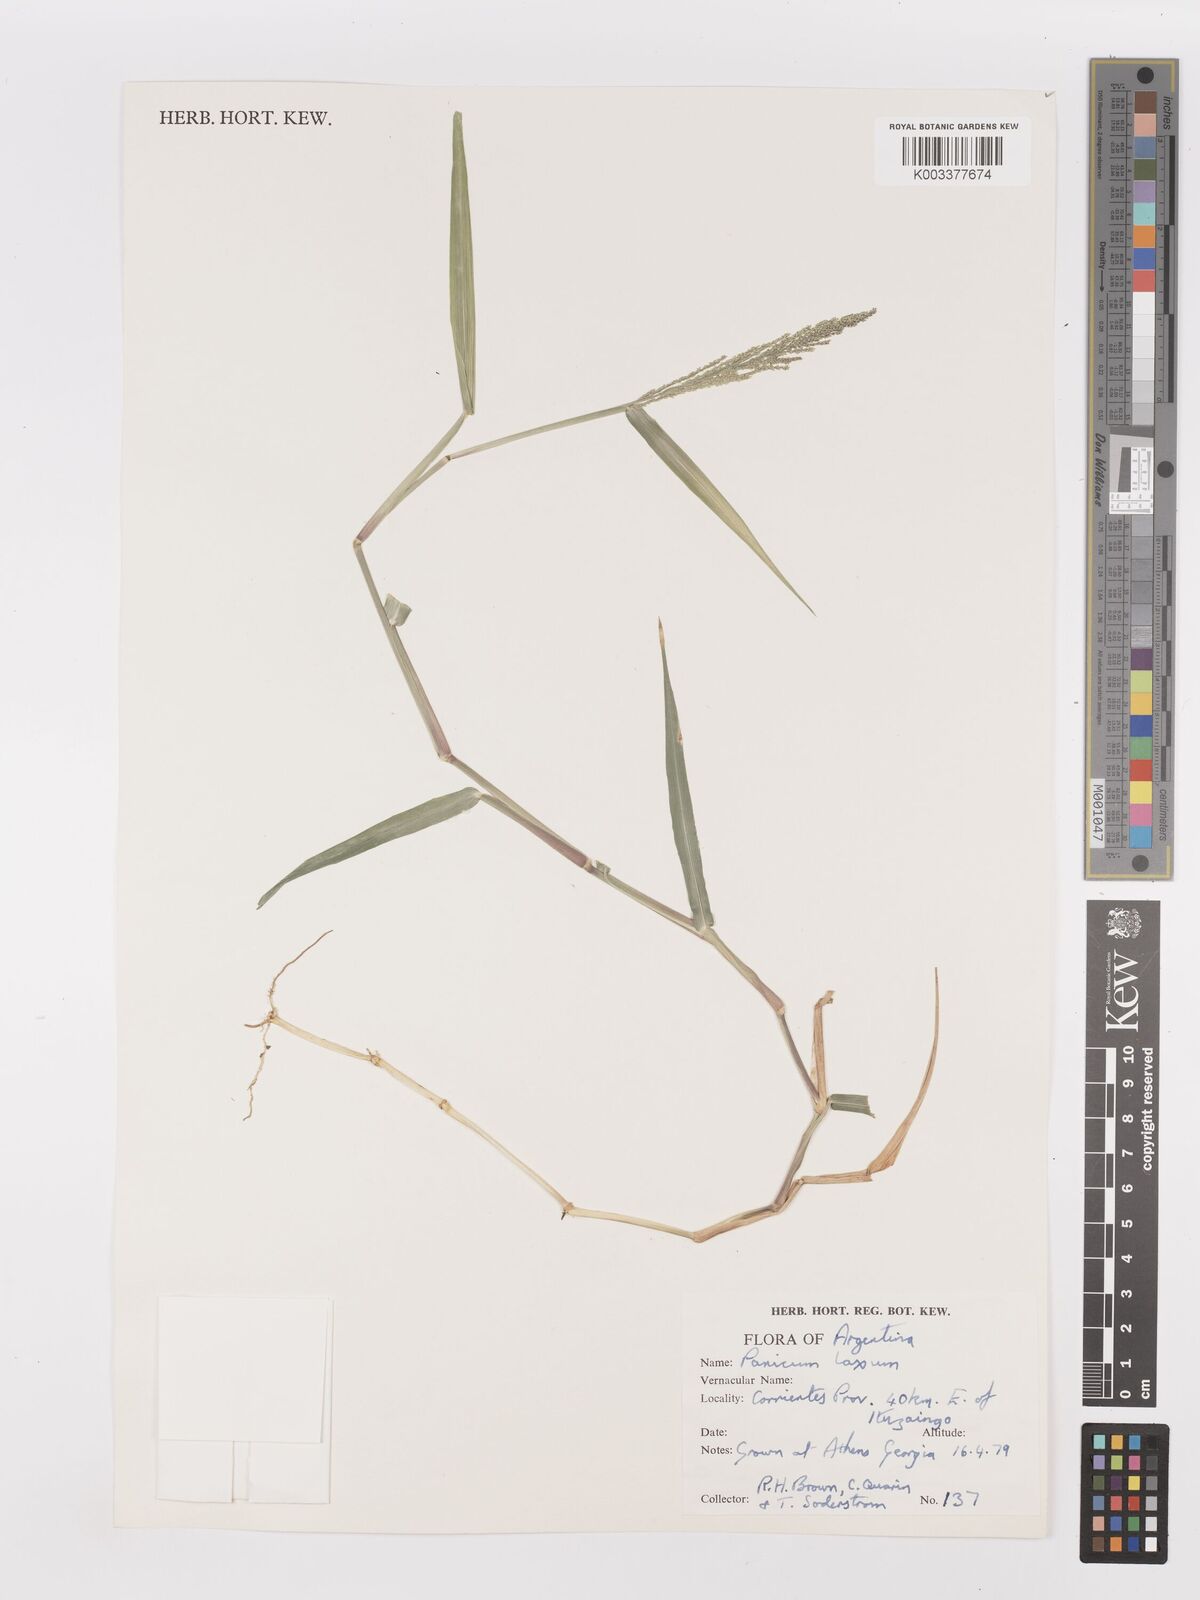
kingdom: Plantae
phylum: Tracheophyta
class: Liliopsida
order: Poales
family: Poaceae
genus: Steinchisma
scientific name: Steinchisma laxum
